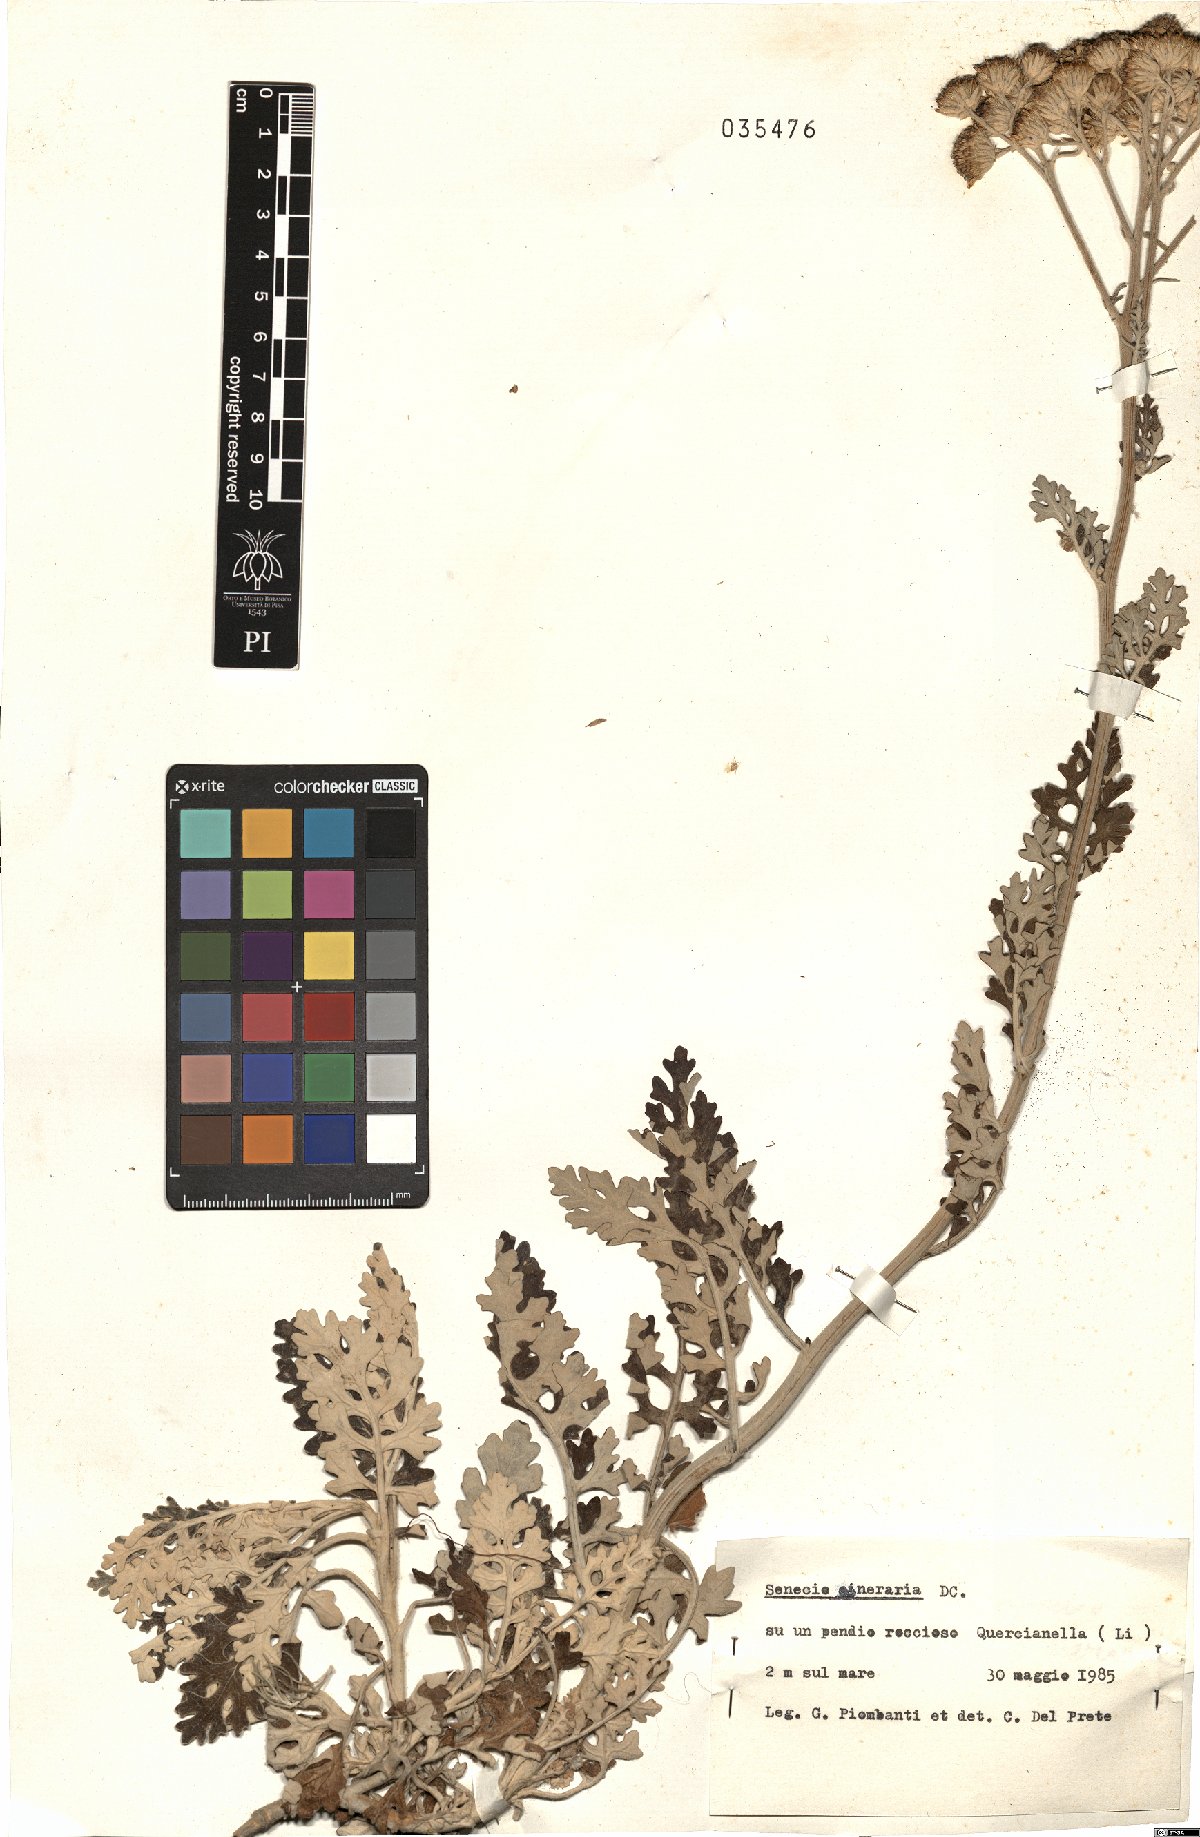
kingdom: Plantae
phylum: Tracheophyta
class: Magnoliopsida
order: Asterales
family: Asteraceae
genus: Jacobaea
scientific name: Jacobaea maritima
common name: Silver ragwort
